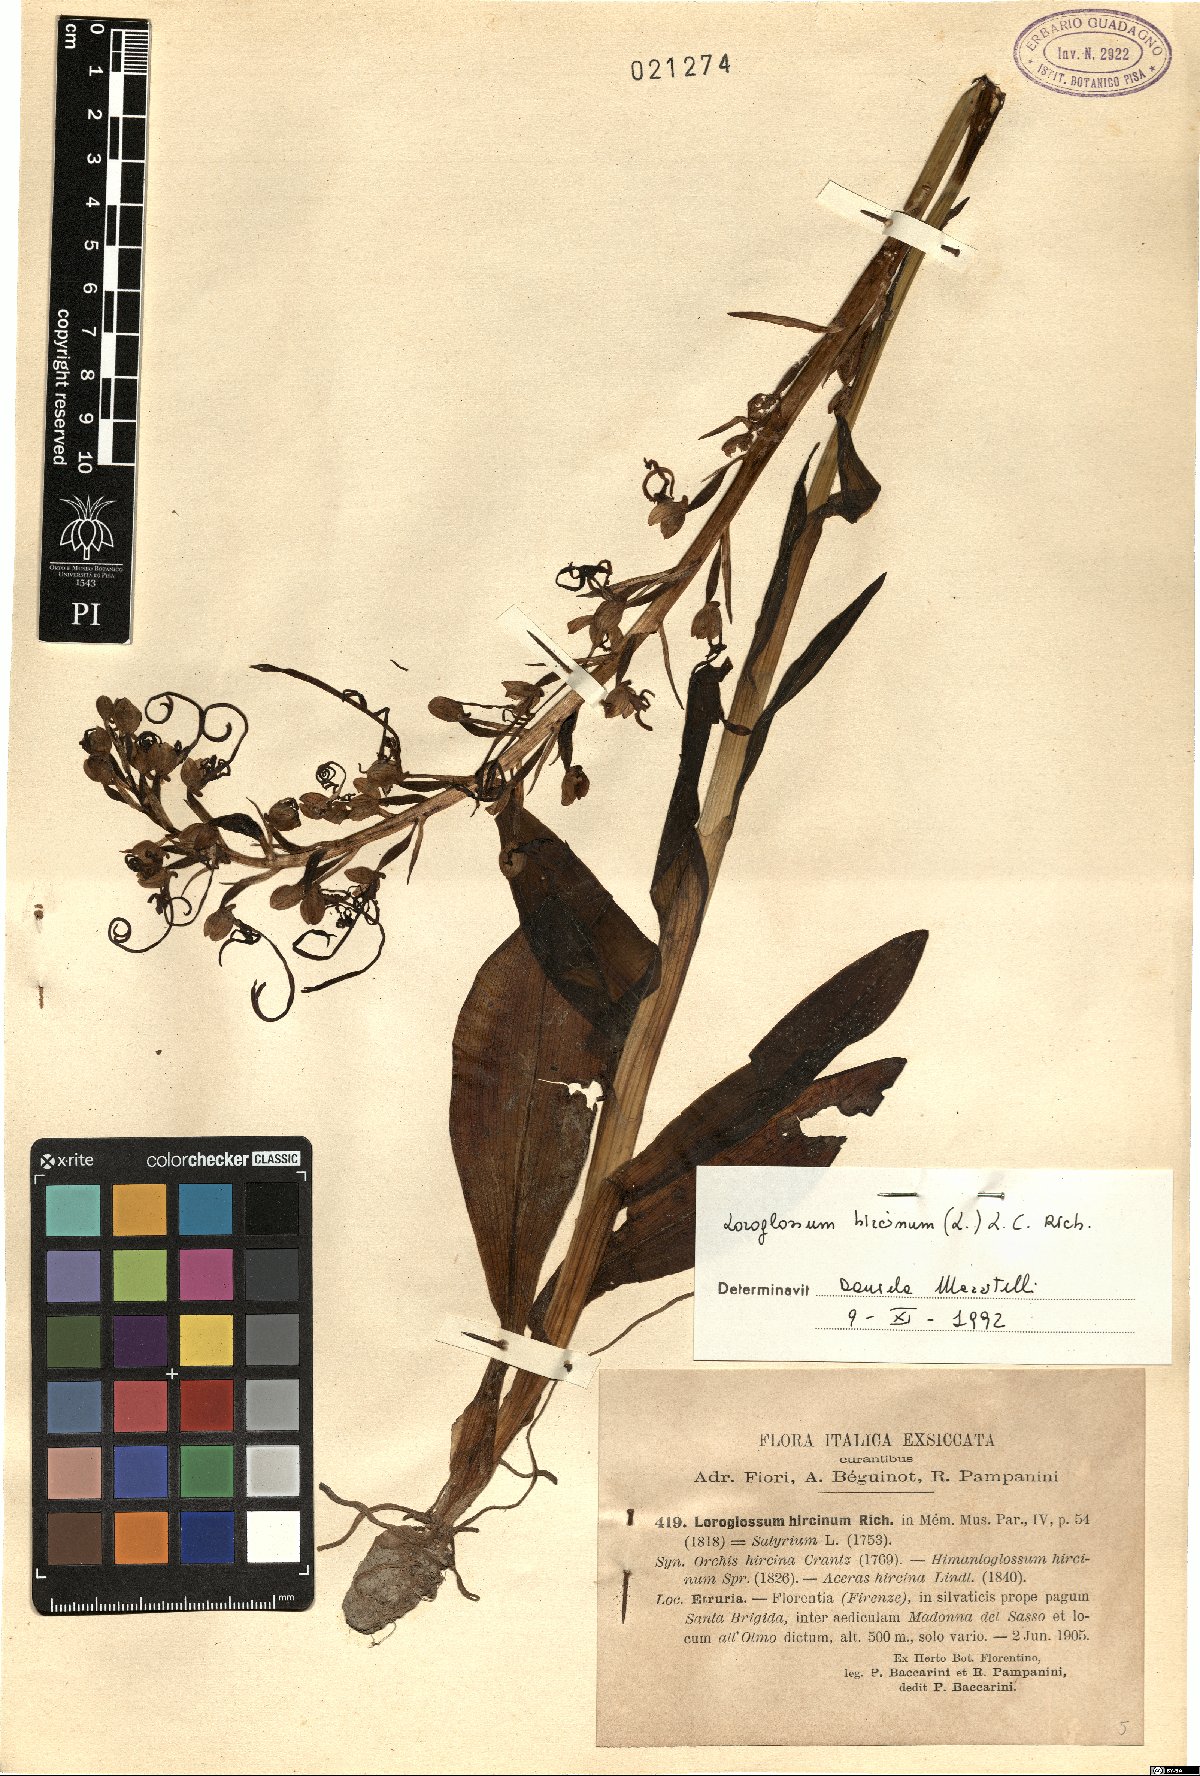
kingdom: Plantae
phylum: Tracheophyta
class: Liliopsida
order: Asparagales
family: Orchidaceae
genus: Himantoglossum
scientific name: Himantoglossum hircinum
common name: Lizard orchid
